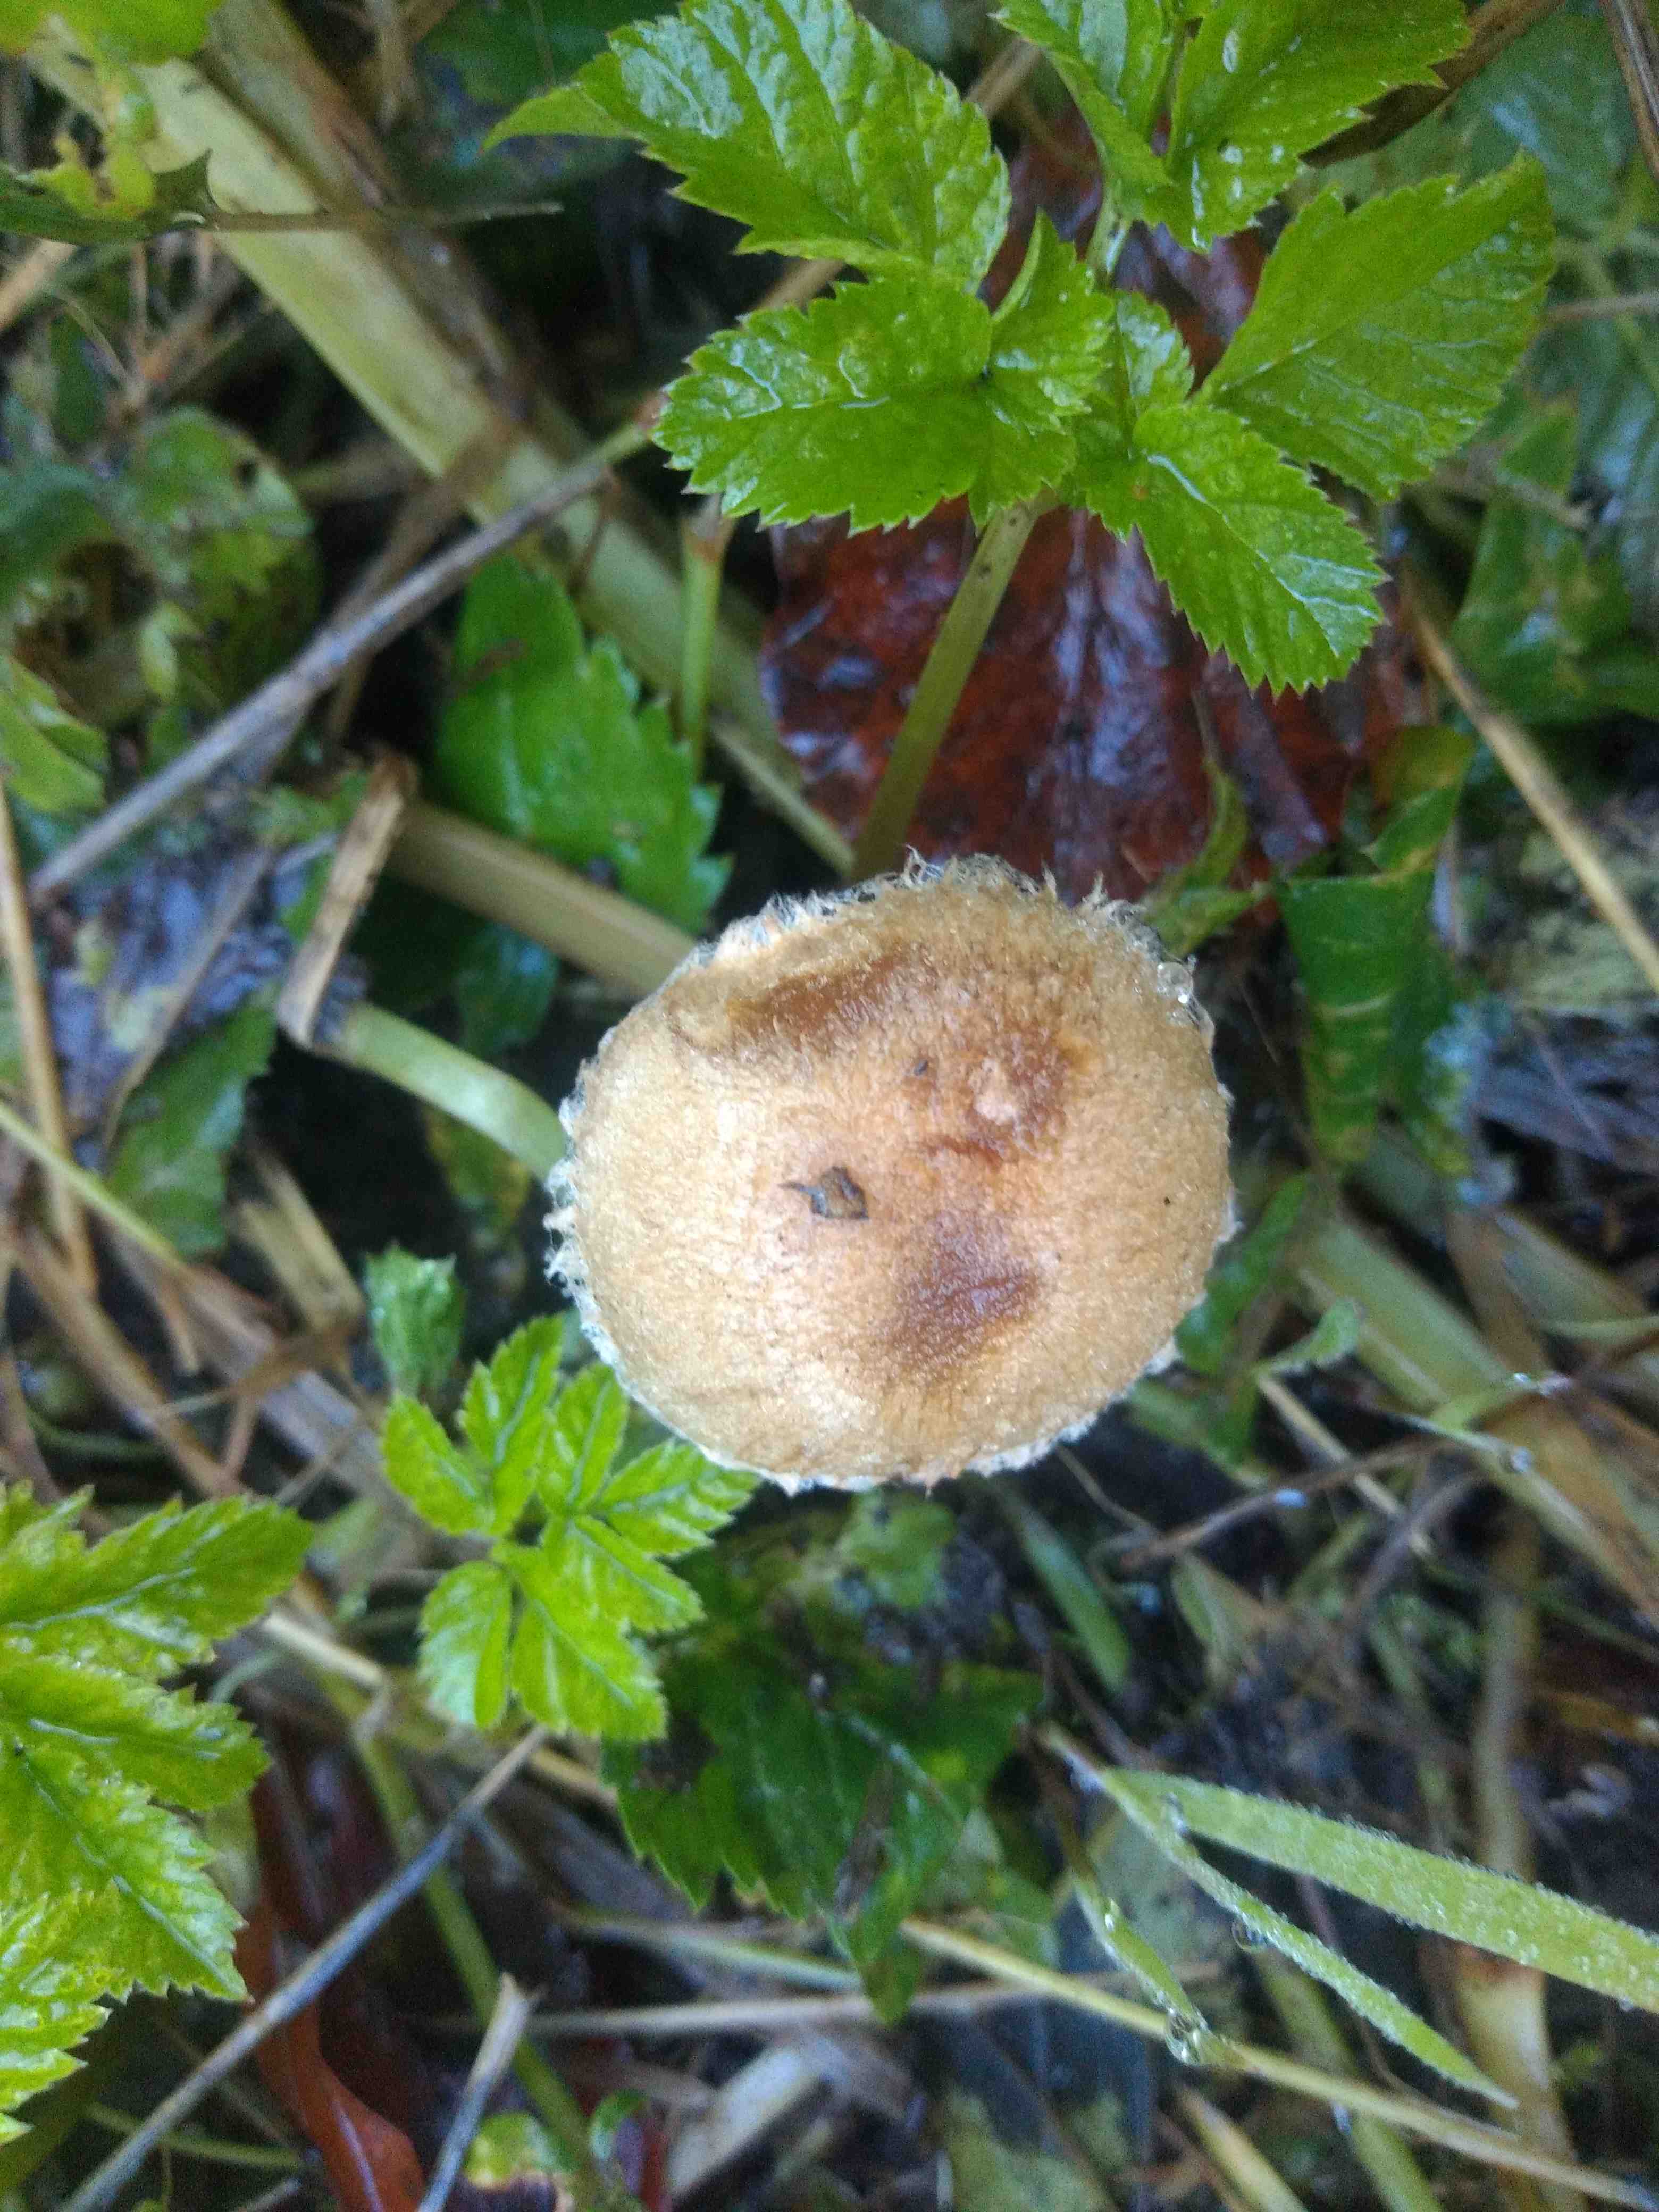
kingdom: Fungi
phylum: Basidiomycota
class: Agaricomycetes
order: Agaricales
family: Psathyrellaceae
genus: Lacrymaria
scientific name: Lacrymaria
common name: mørkhat
